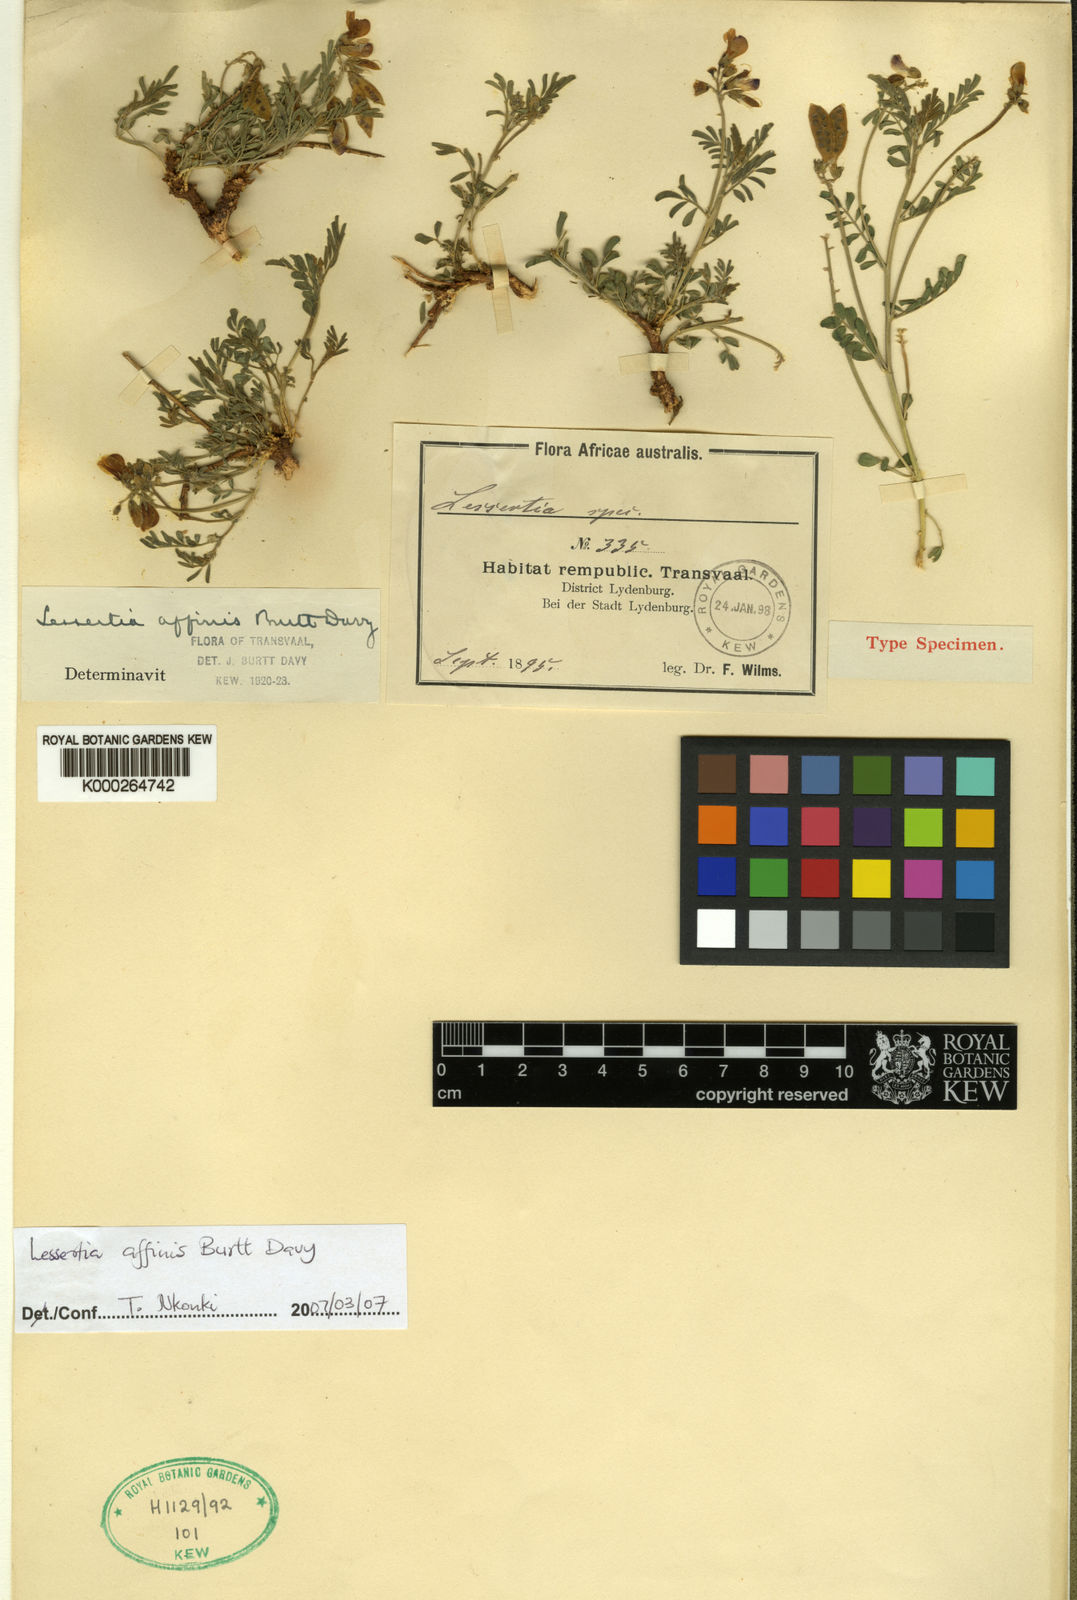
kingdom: Plantae
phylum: Tracheophyta
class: Magnoliopsida
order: Fabales
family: Fabaceae
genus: Lessertia
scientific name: Lessertia affinis
